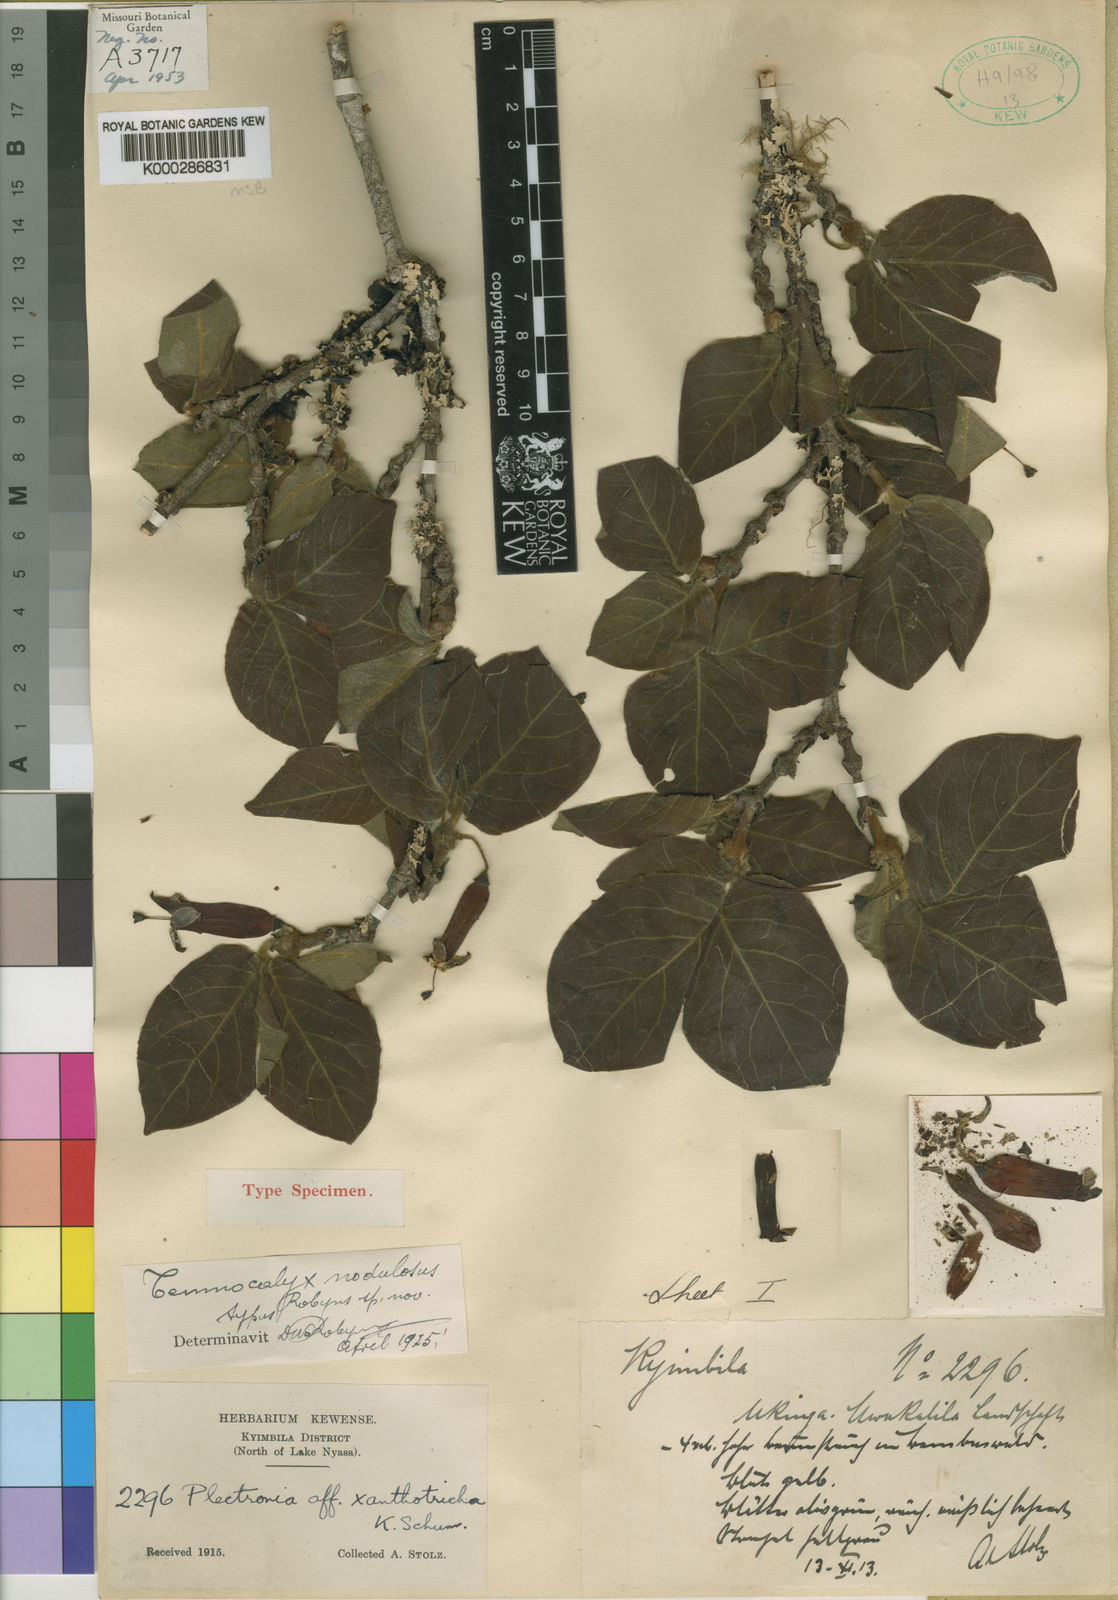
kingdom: Plantae
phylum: Tracheophyta
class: Magnoliopsida
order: Gentianales
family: Rubiaceae
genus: Temnocalyx
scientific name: Temnocalyx nodulosa
